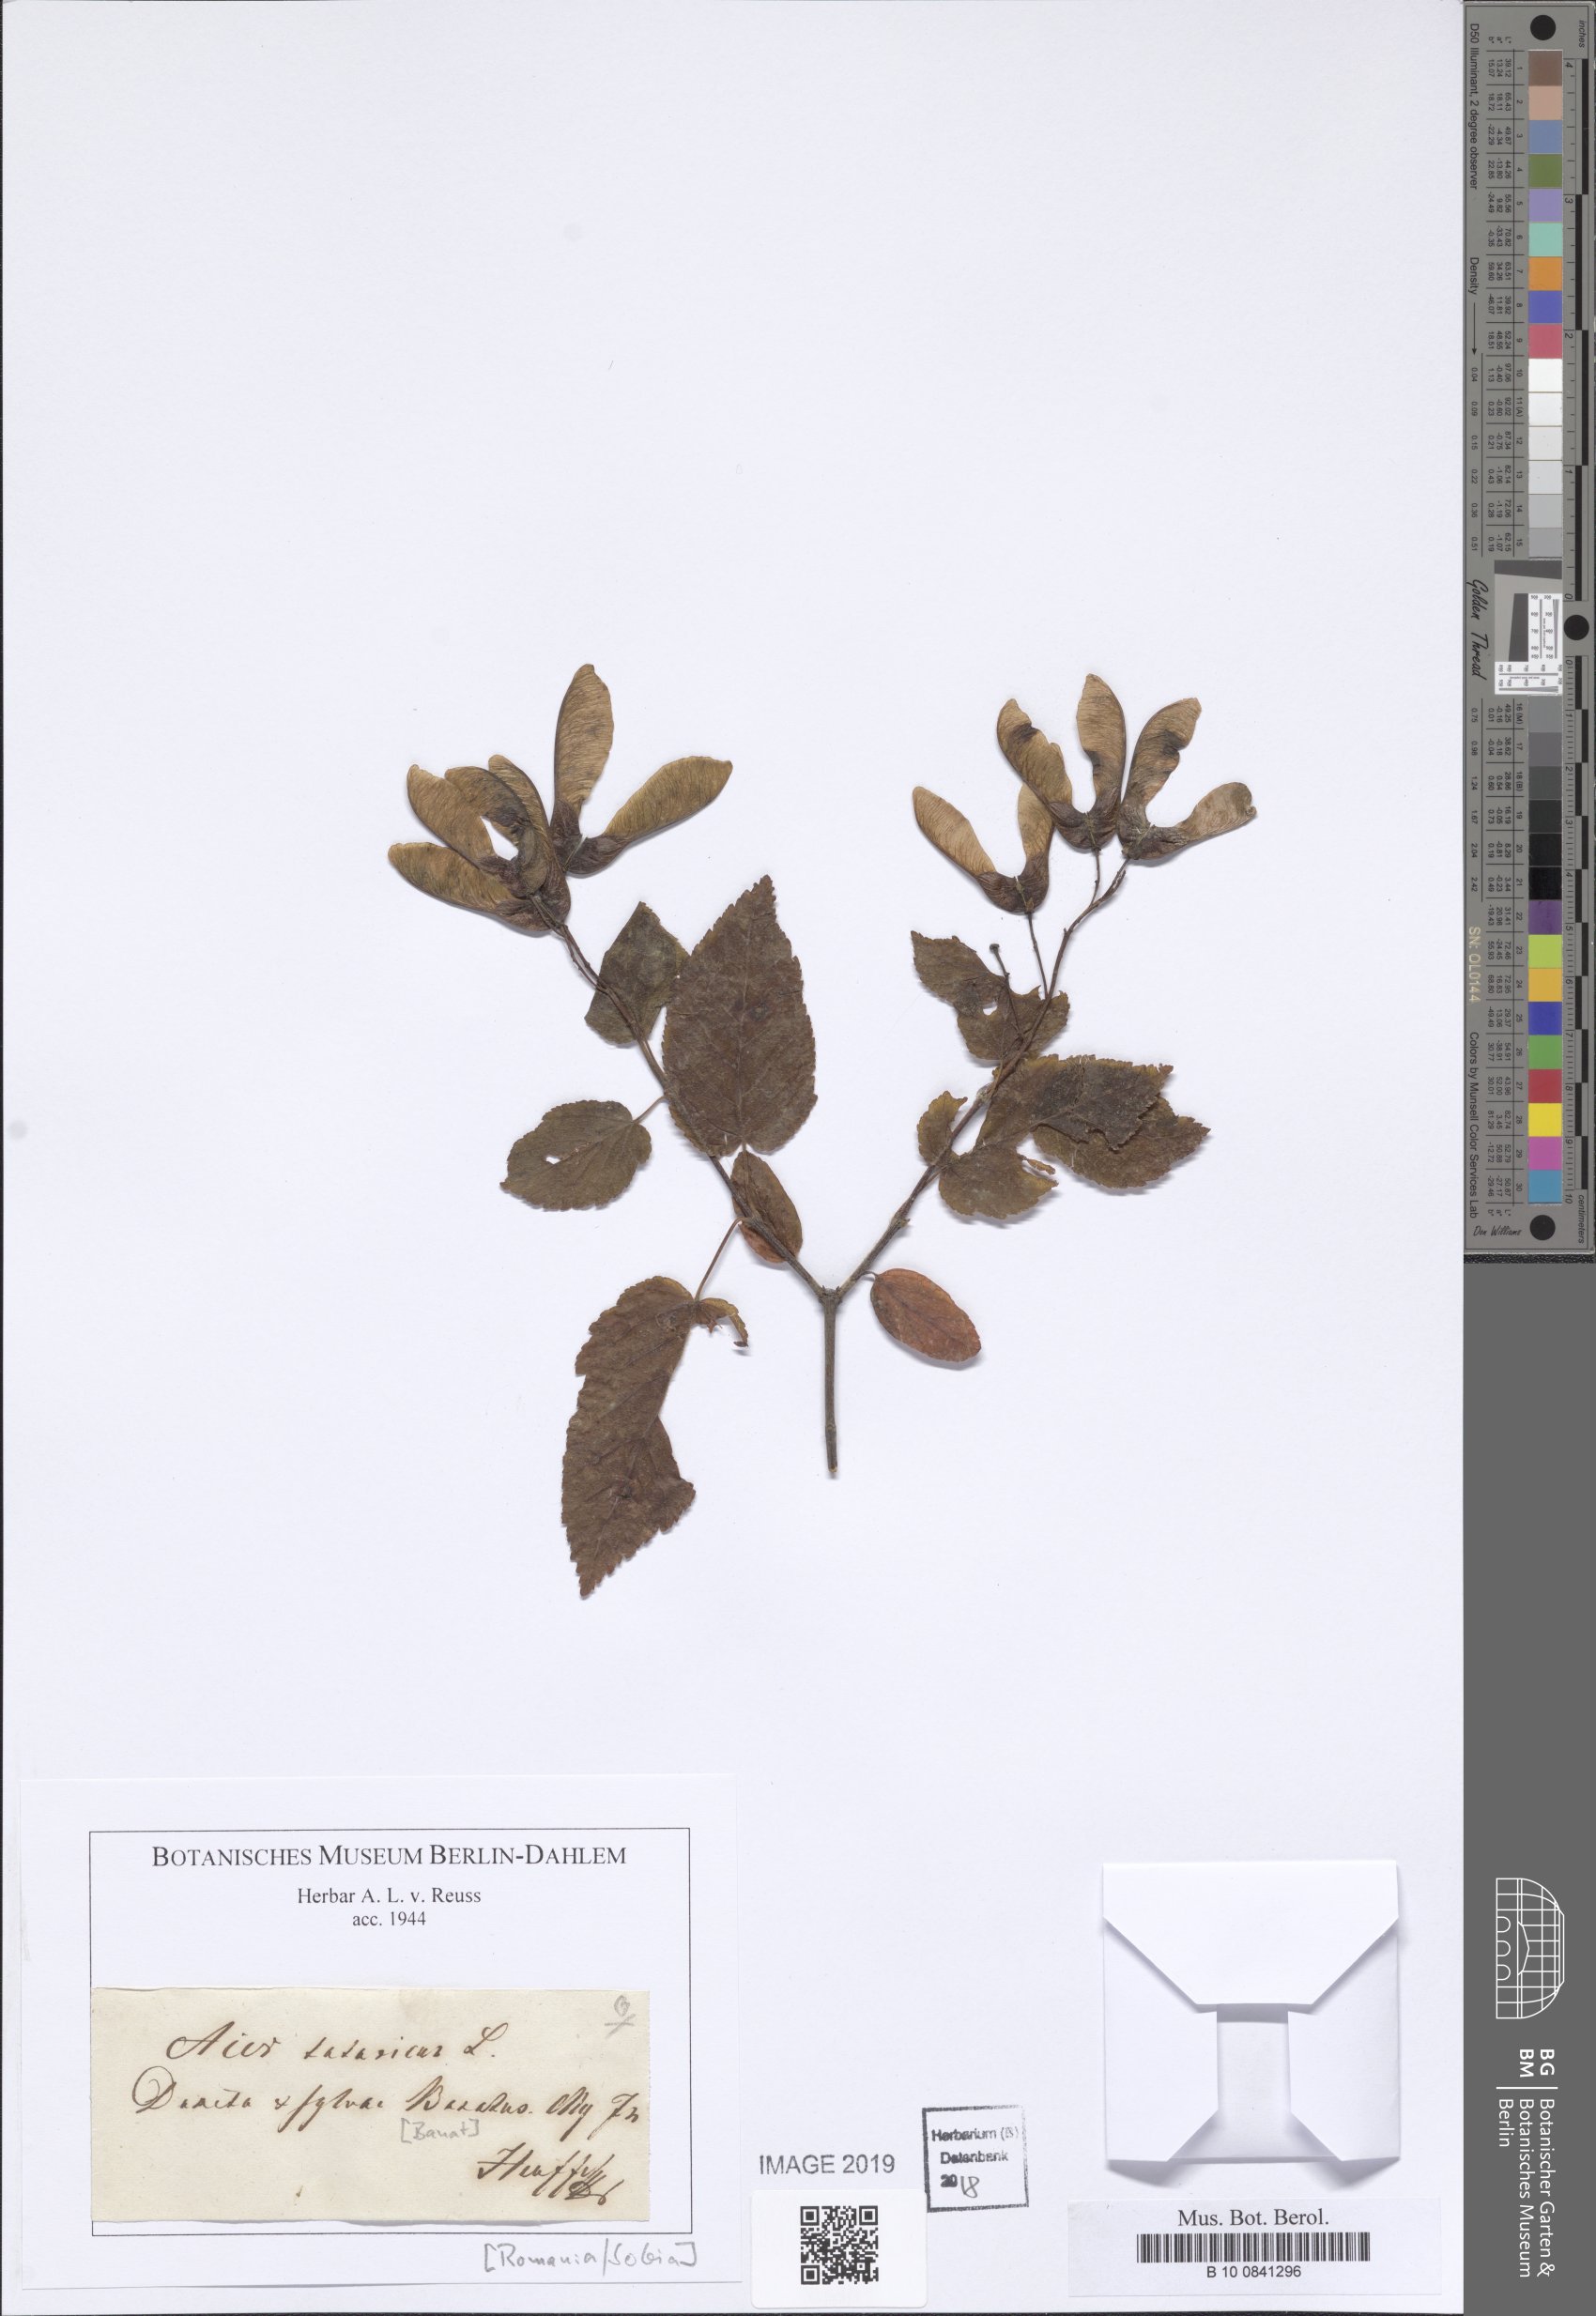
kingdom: Plantae
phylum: Tracheophyta
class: Magnoliopsida
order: Sapindales
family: Sapindaceae
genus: Acer
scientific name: Acer tataricum
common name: Tartar maple
